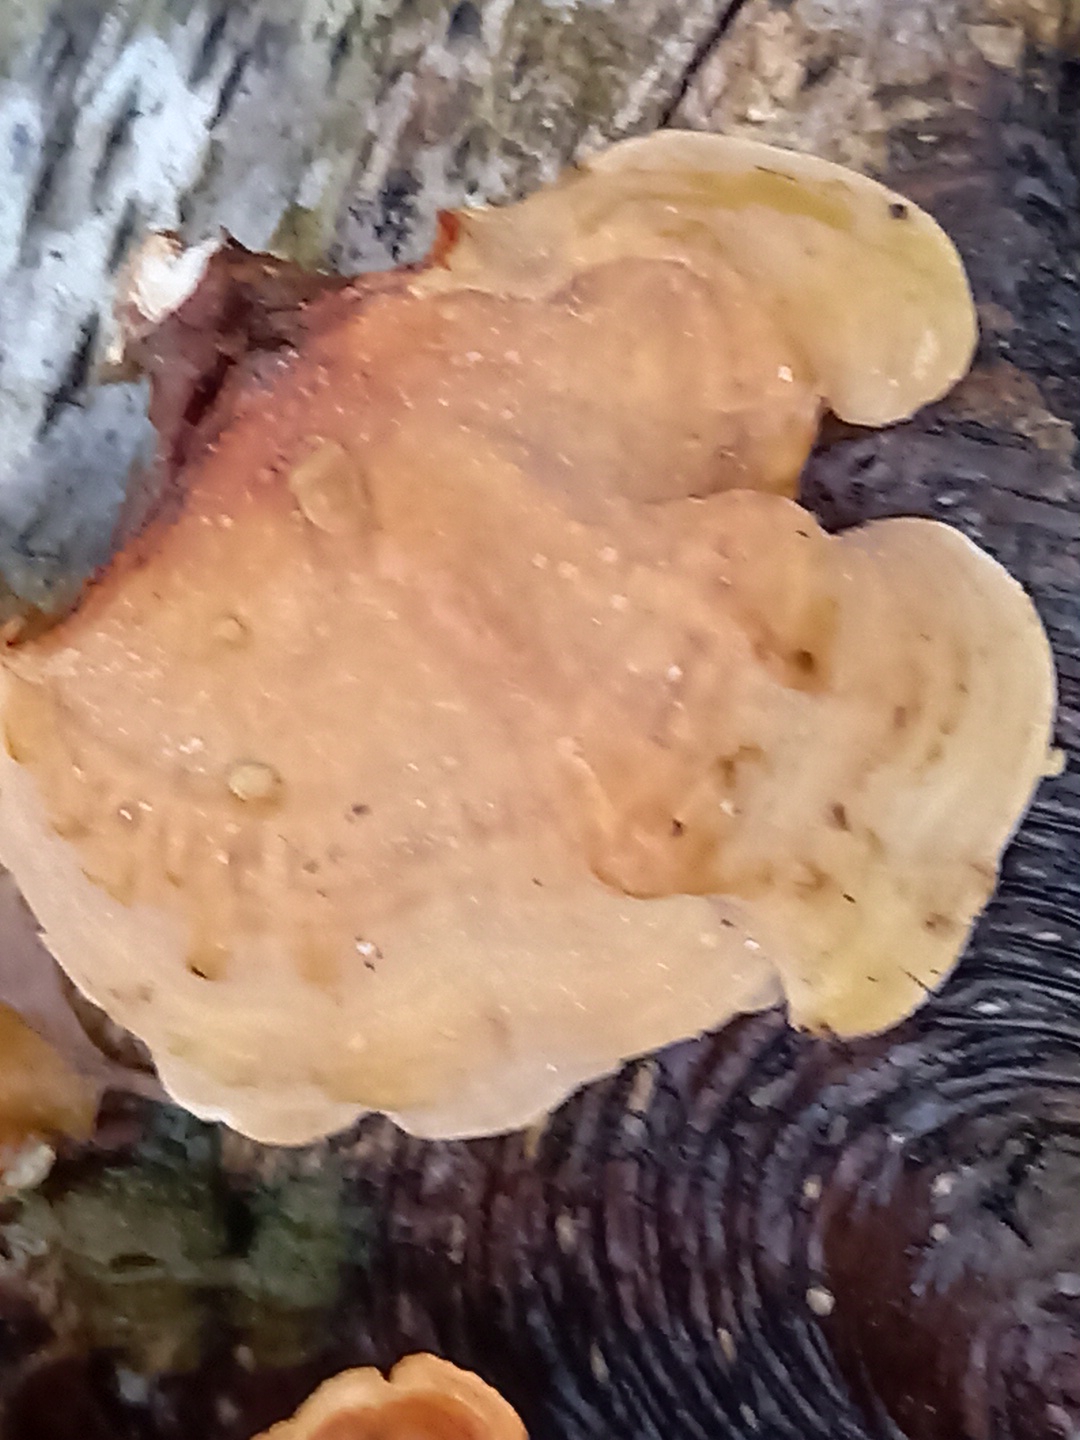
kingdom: Fungi
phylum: Basidiomycota
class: Agaricomycetes
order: Russulales
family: Stereaceae
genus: Stereum
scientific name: Stereum subtomentosum
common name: smuk lædersvamp
